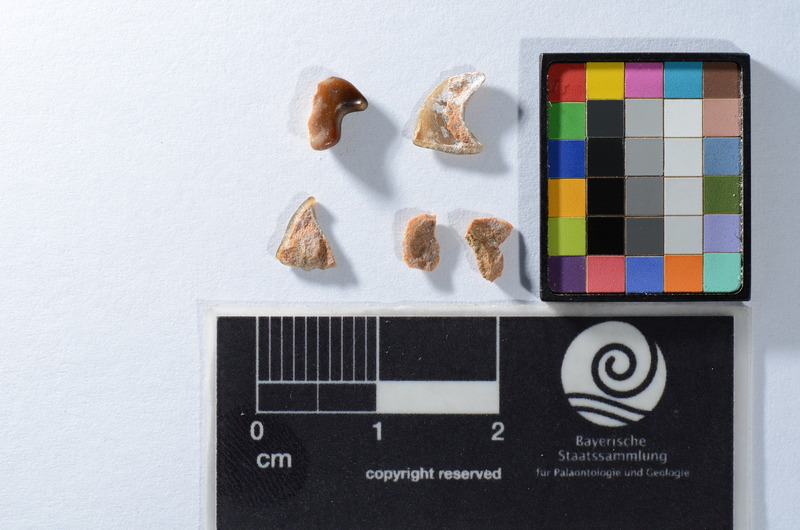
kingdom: Animalia
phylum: Chordata
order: Tetraodontiformes
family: Trigonodontidae
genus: Stephanodus
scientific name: Stephanodus Ancistrodon lybicus
